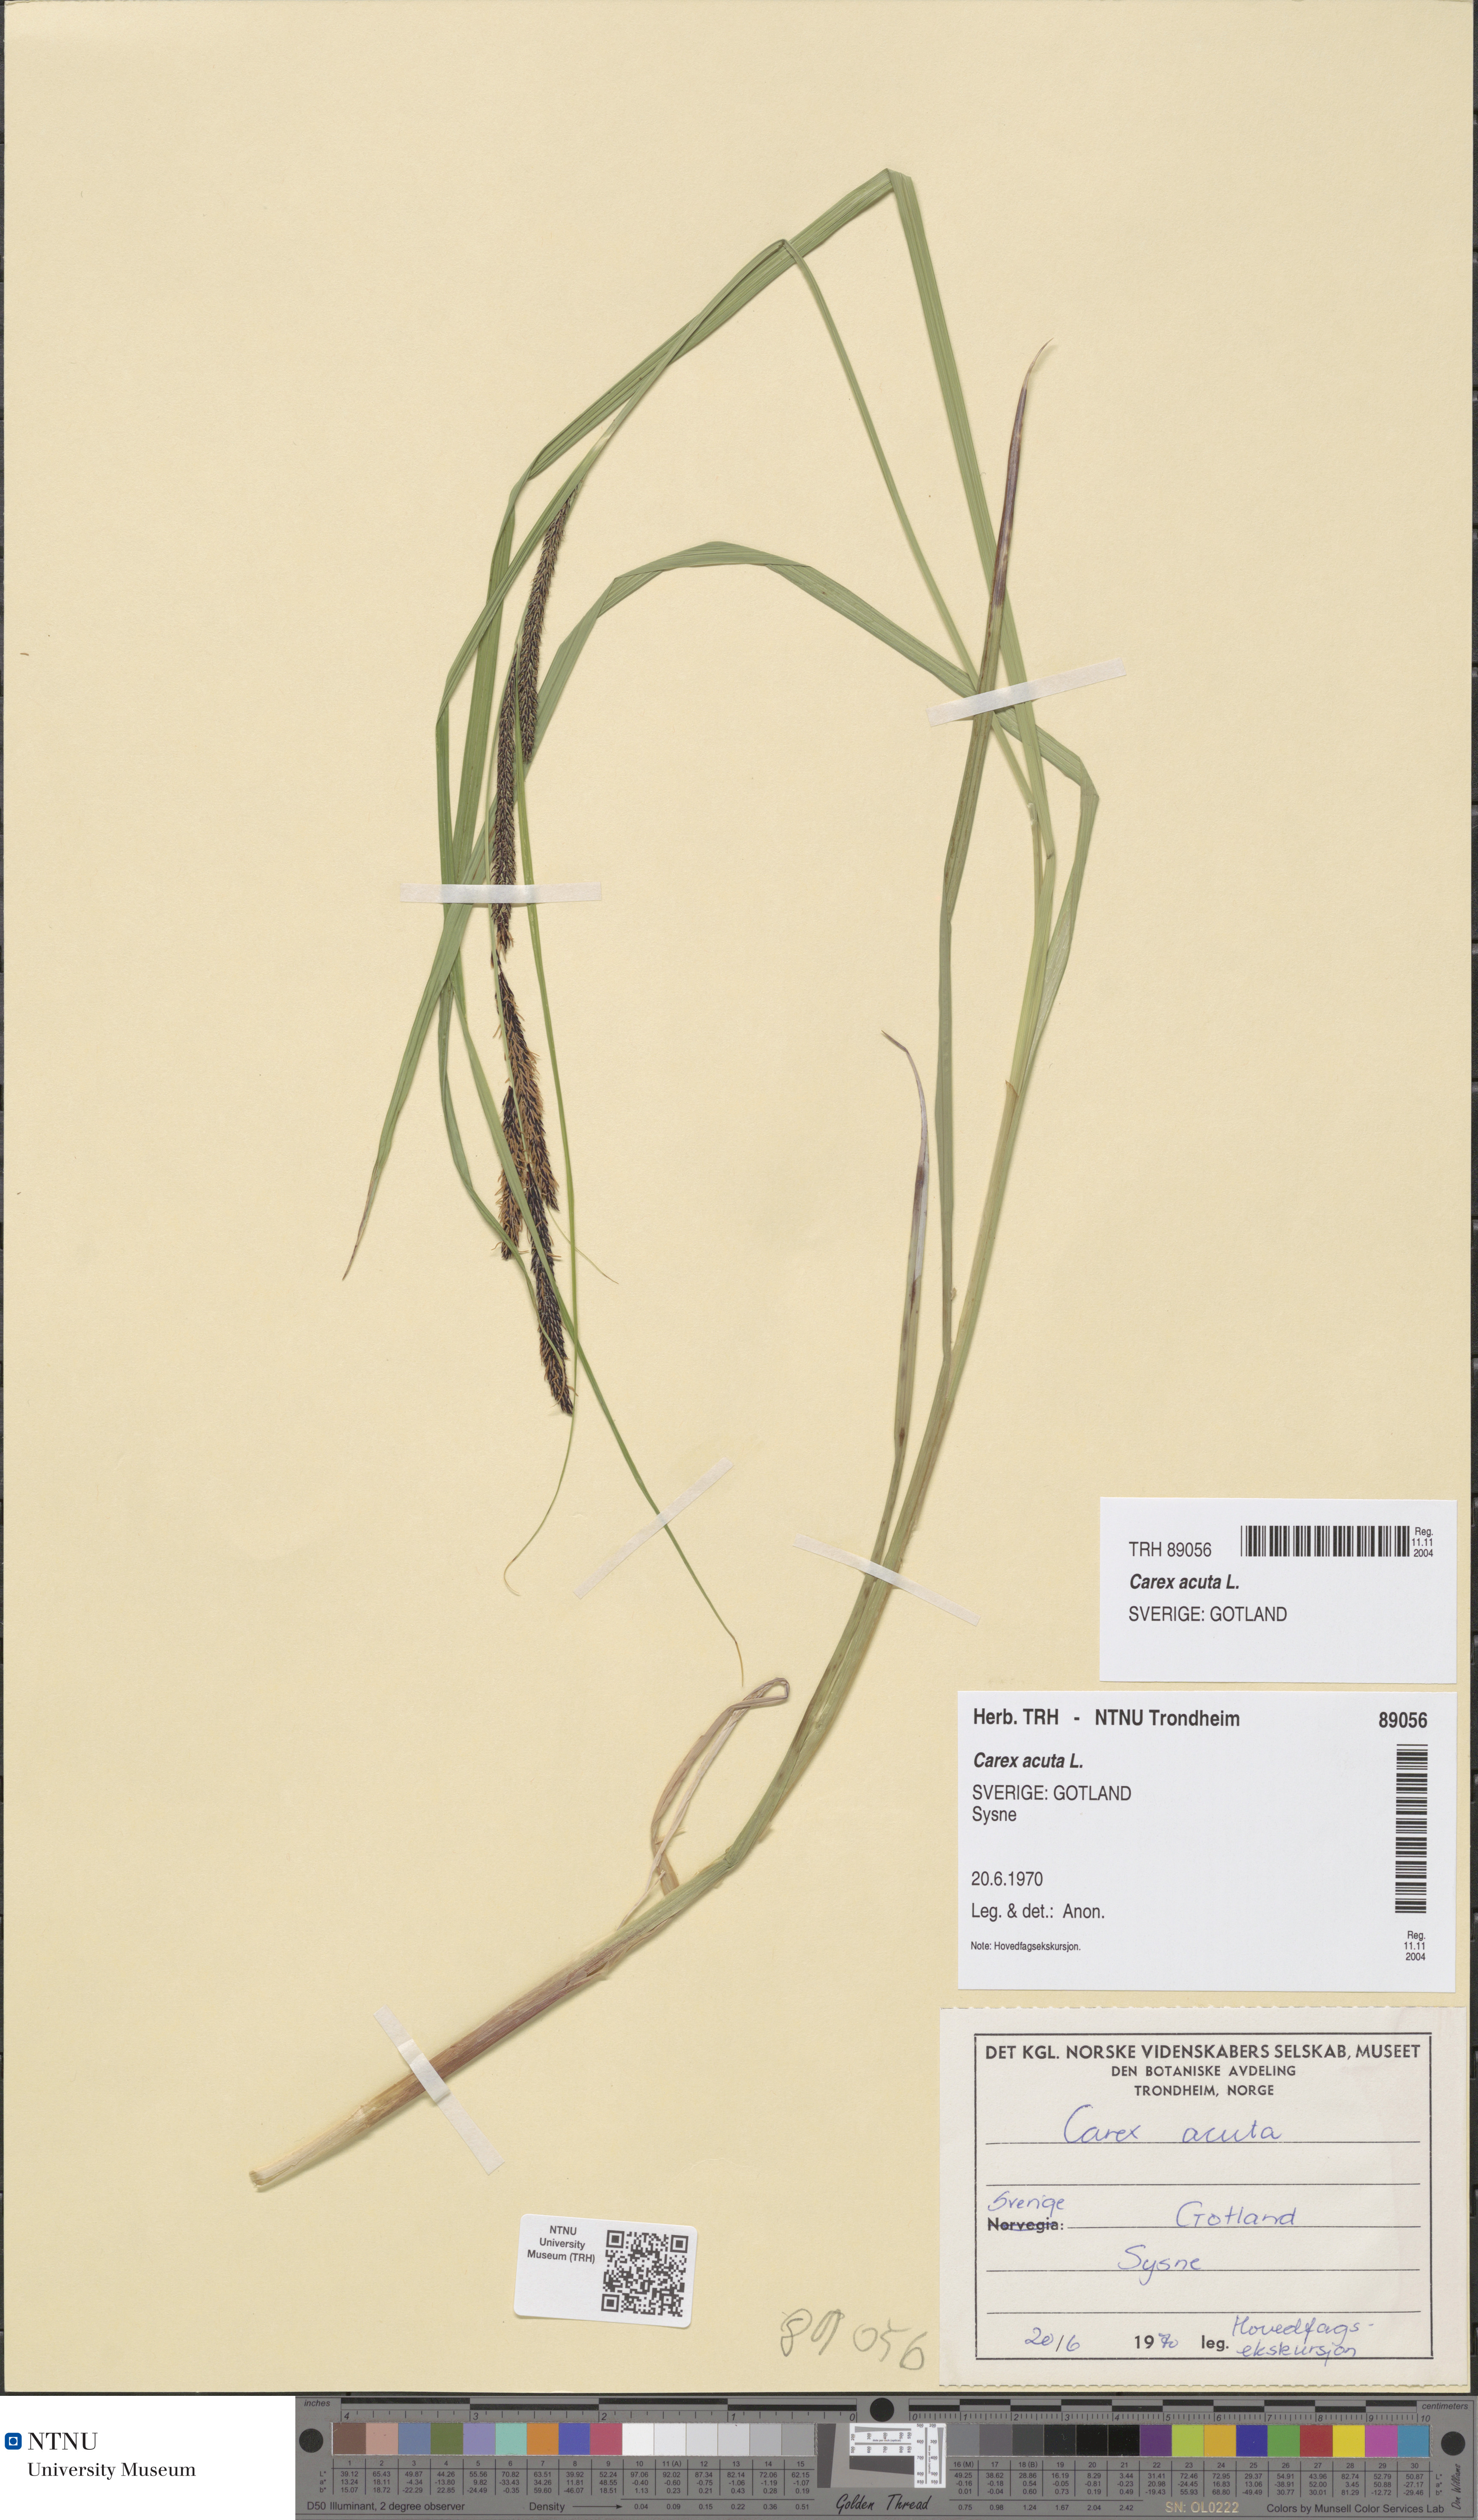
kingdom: Plantae
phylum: Tracheophyta
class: Liliopsida
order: Poales
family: Cyperaceae
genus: Carex
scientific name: Carex acuta
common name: Slender tufted-sedge
